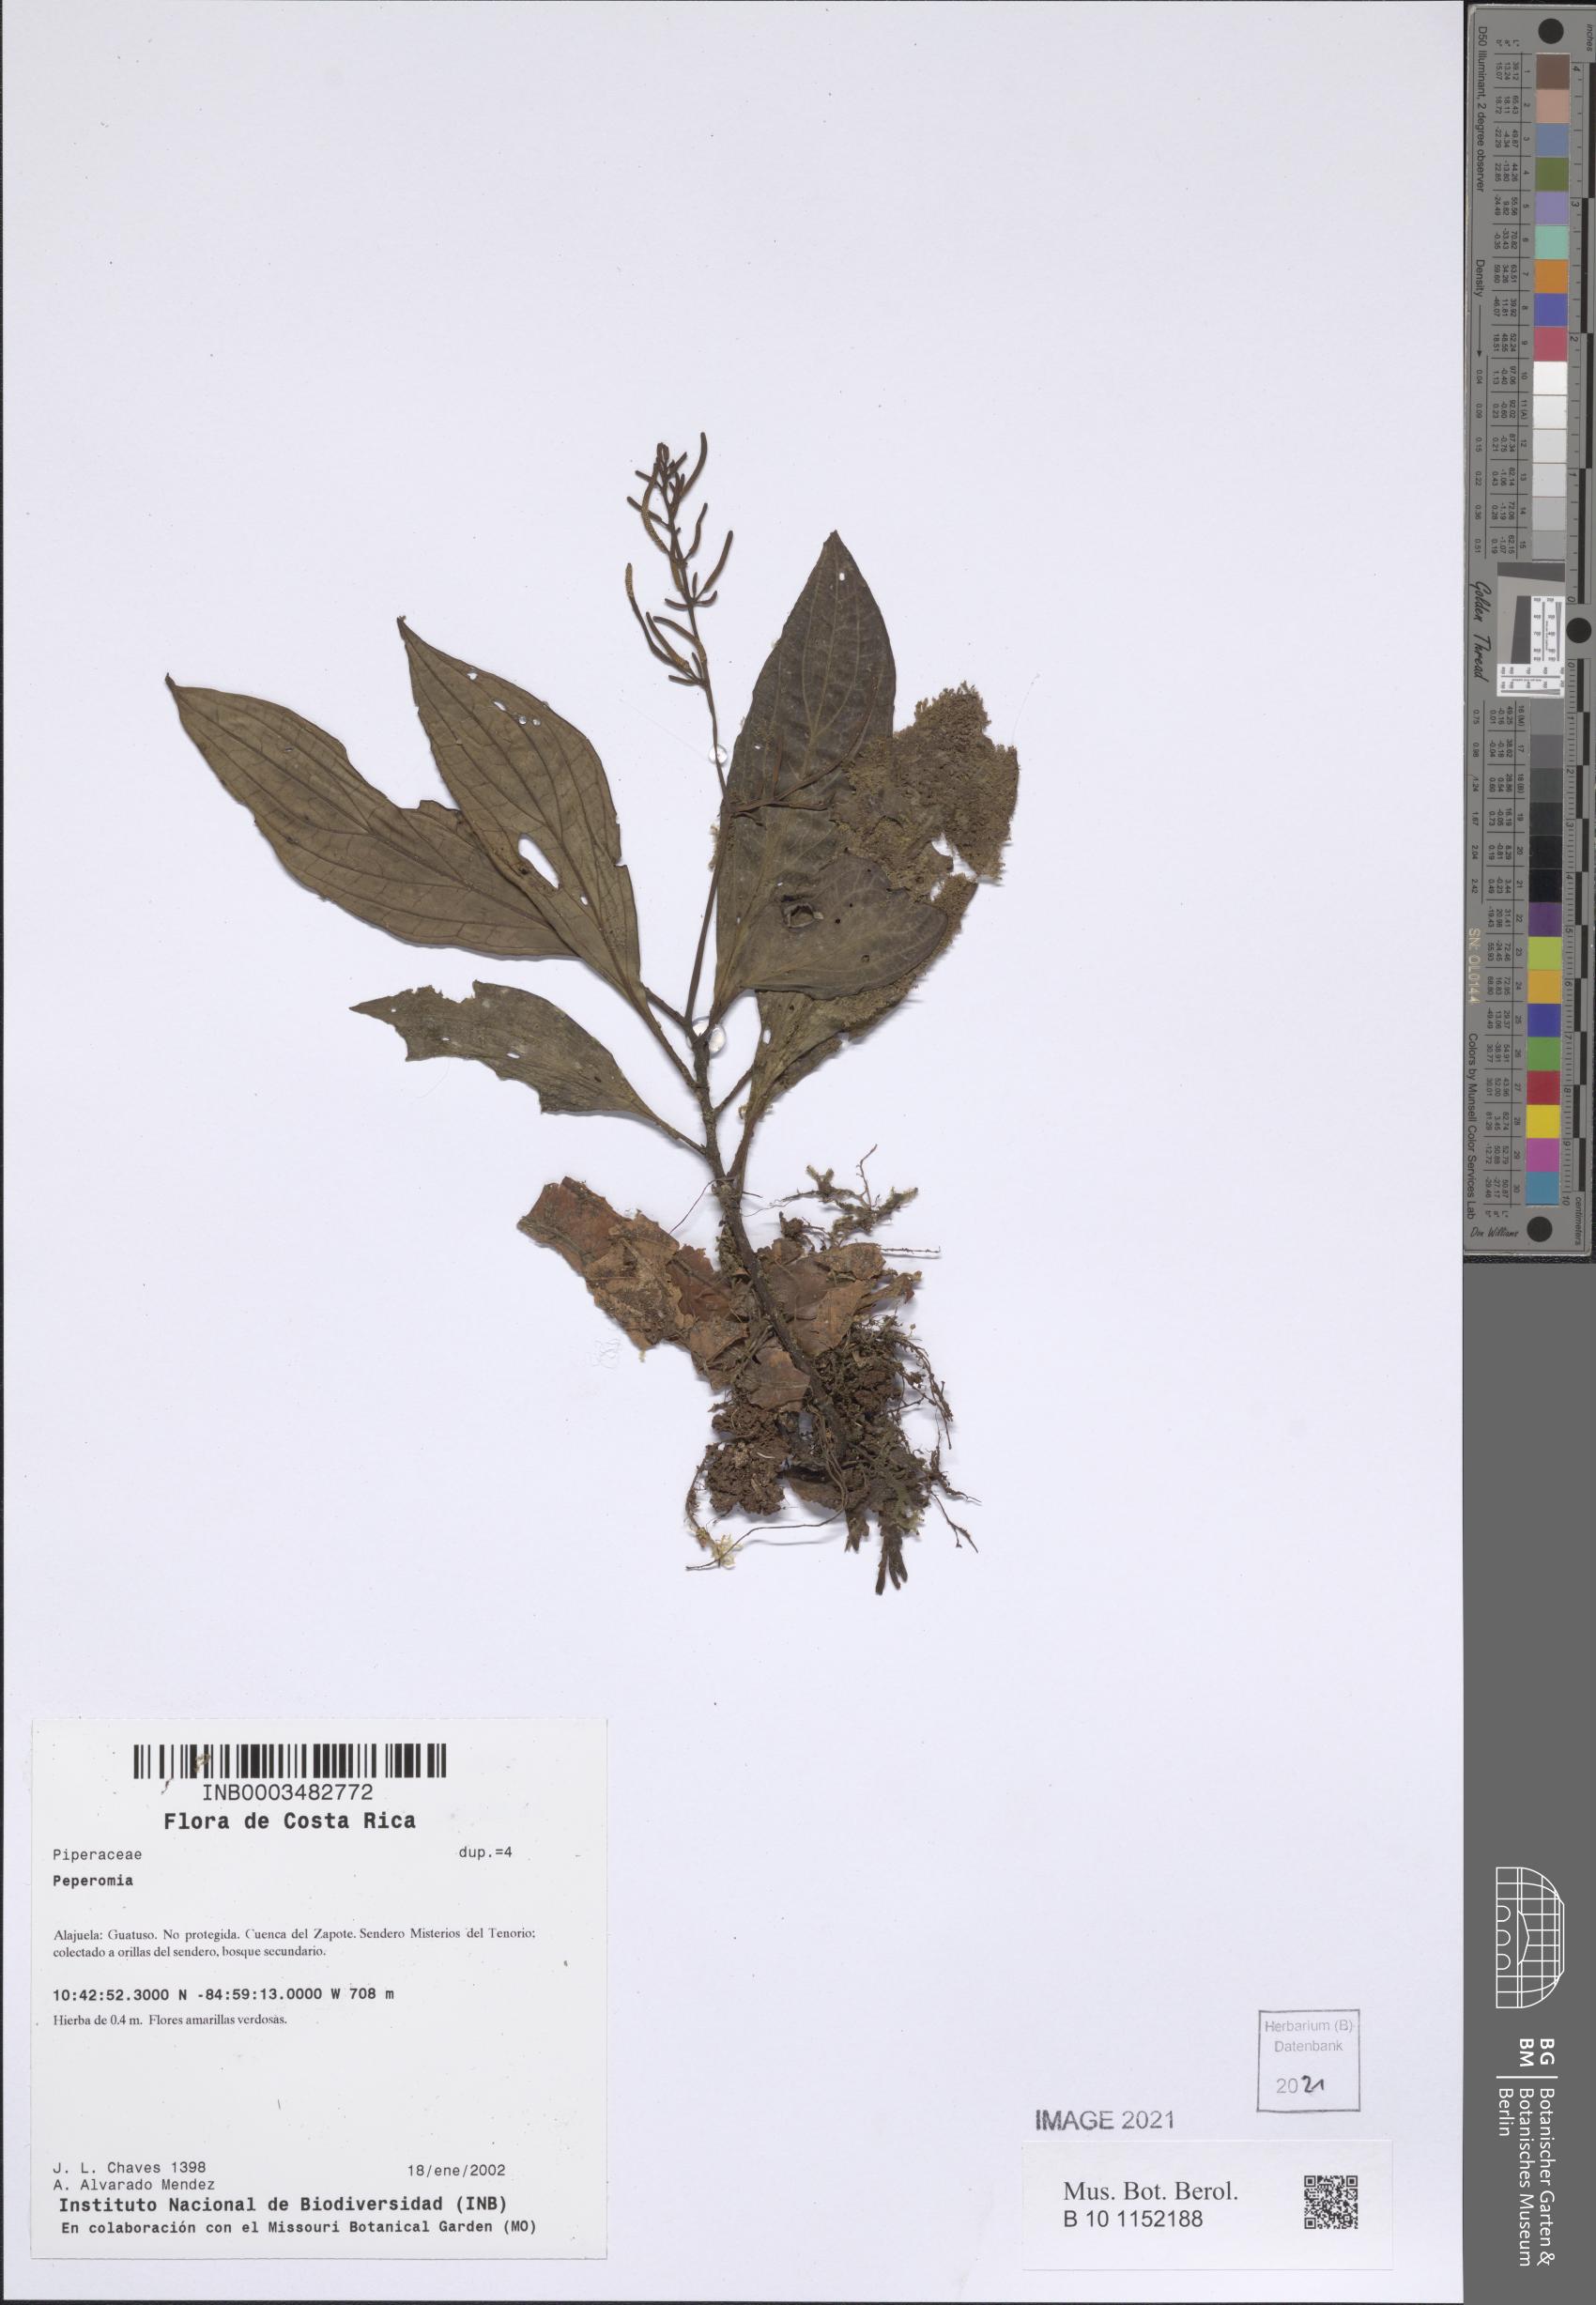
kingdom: Plantae
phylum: Tracheophyta
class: Magnoliopsida
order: Piperales
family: Piperaceae
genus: Peperomia
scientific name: Peperomia
